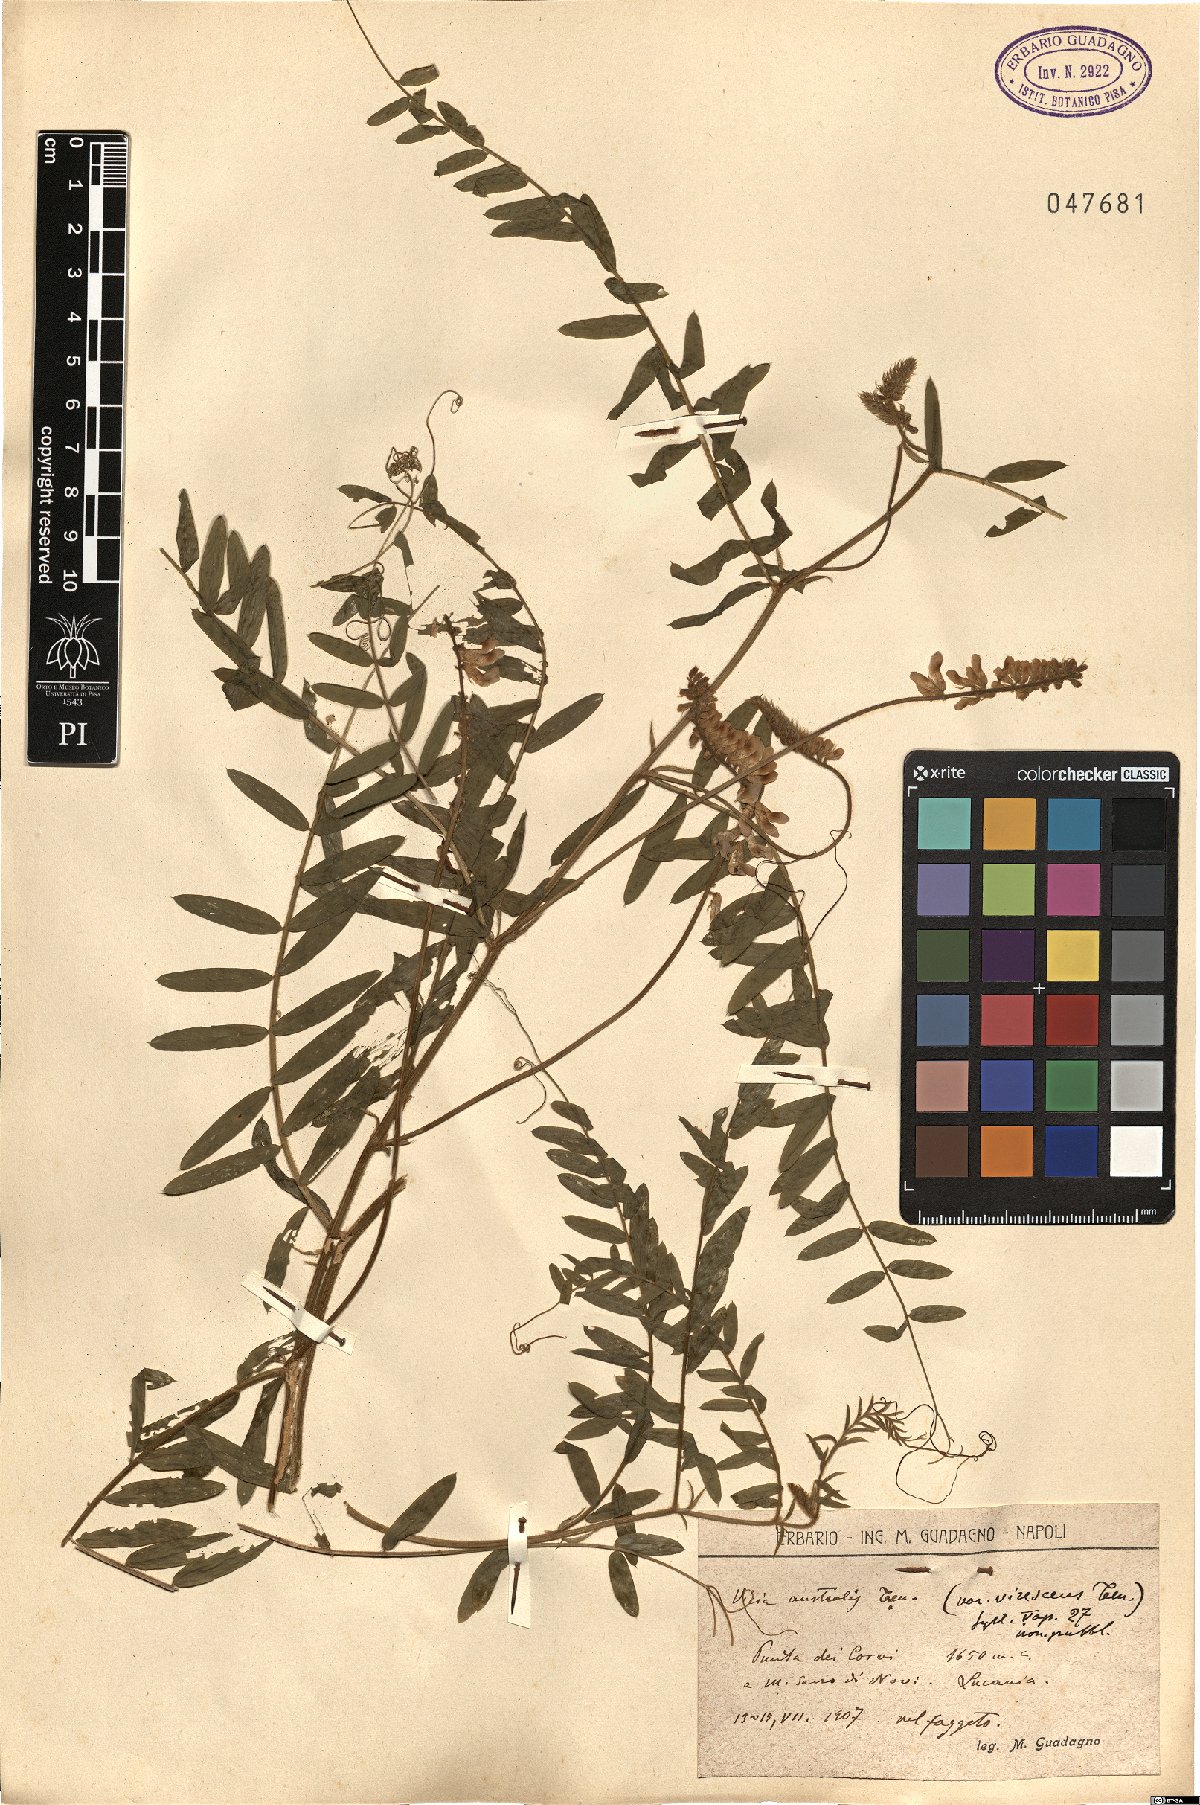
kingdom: Plantae
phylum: Tracheophyta
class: Magnoliopsida
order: Fabales
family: Fabaceae
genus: Vicia
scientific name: Vicia cracca
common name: Bird vetch
